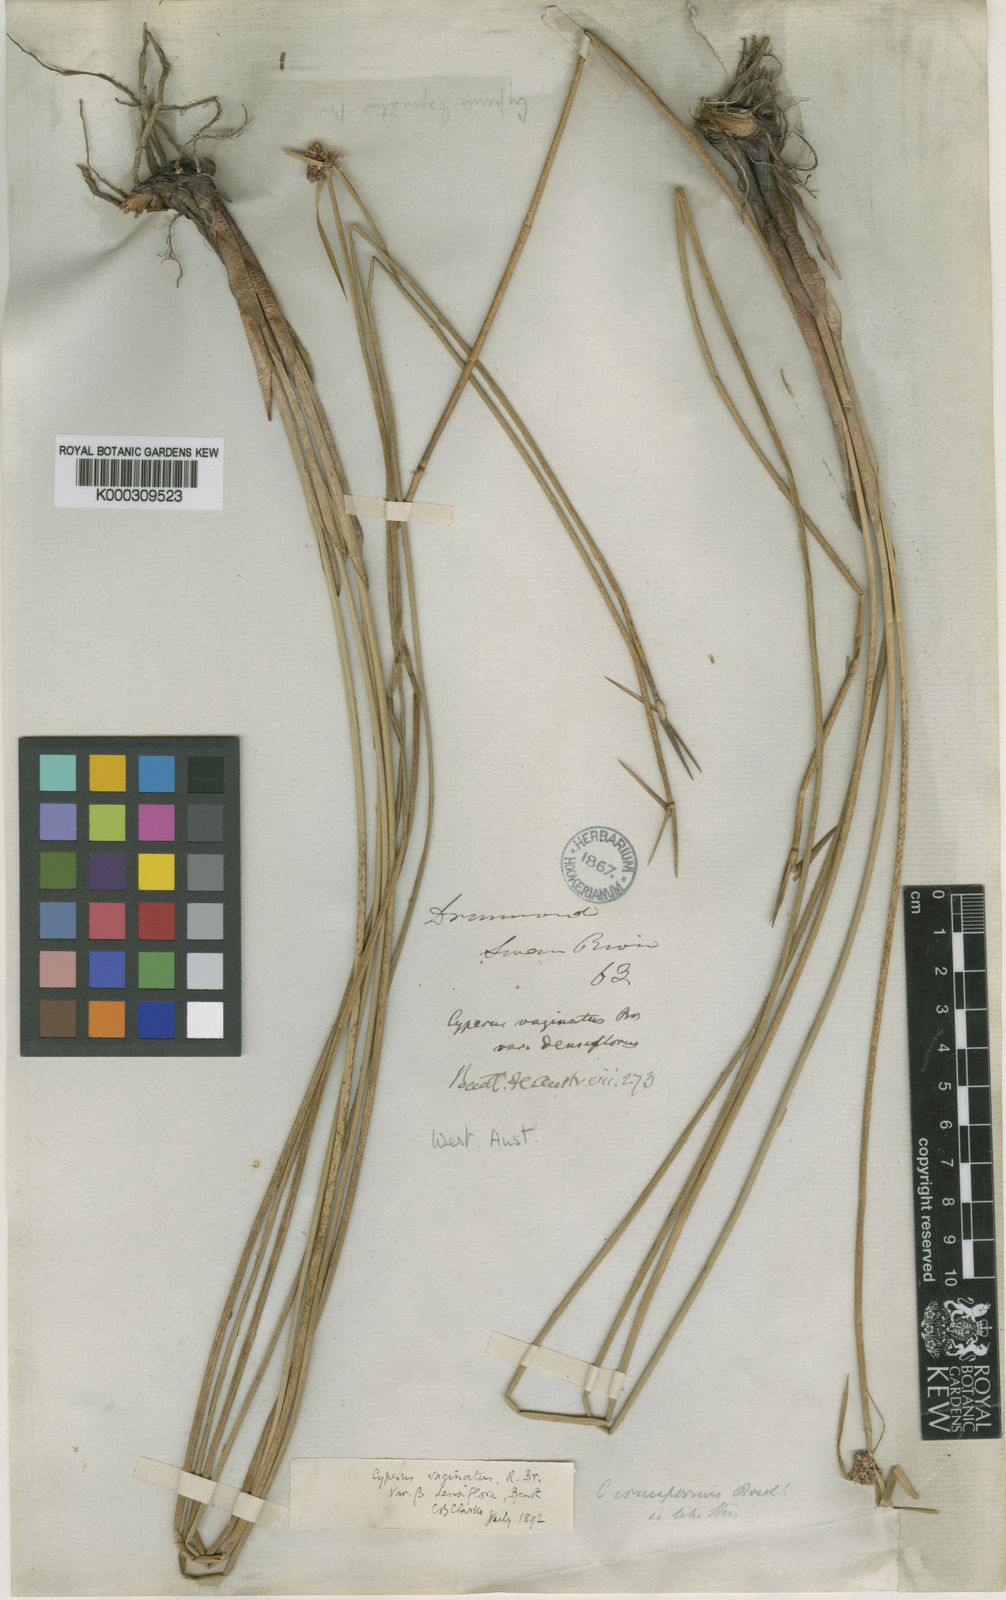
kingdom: Plantae
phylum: Tracheophyta
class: Liliopsida
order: Poales
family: Cyperaceae
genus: Cyperus
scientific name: Cyperus gymnocaulos
